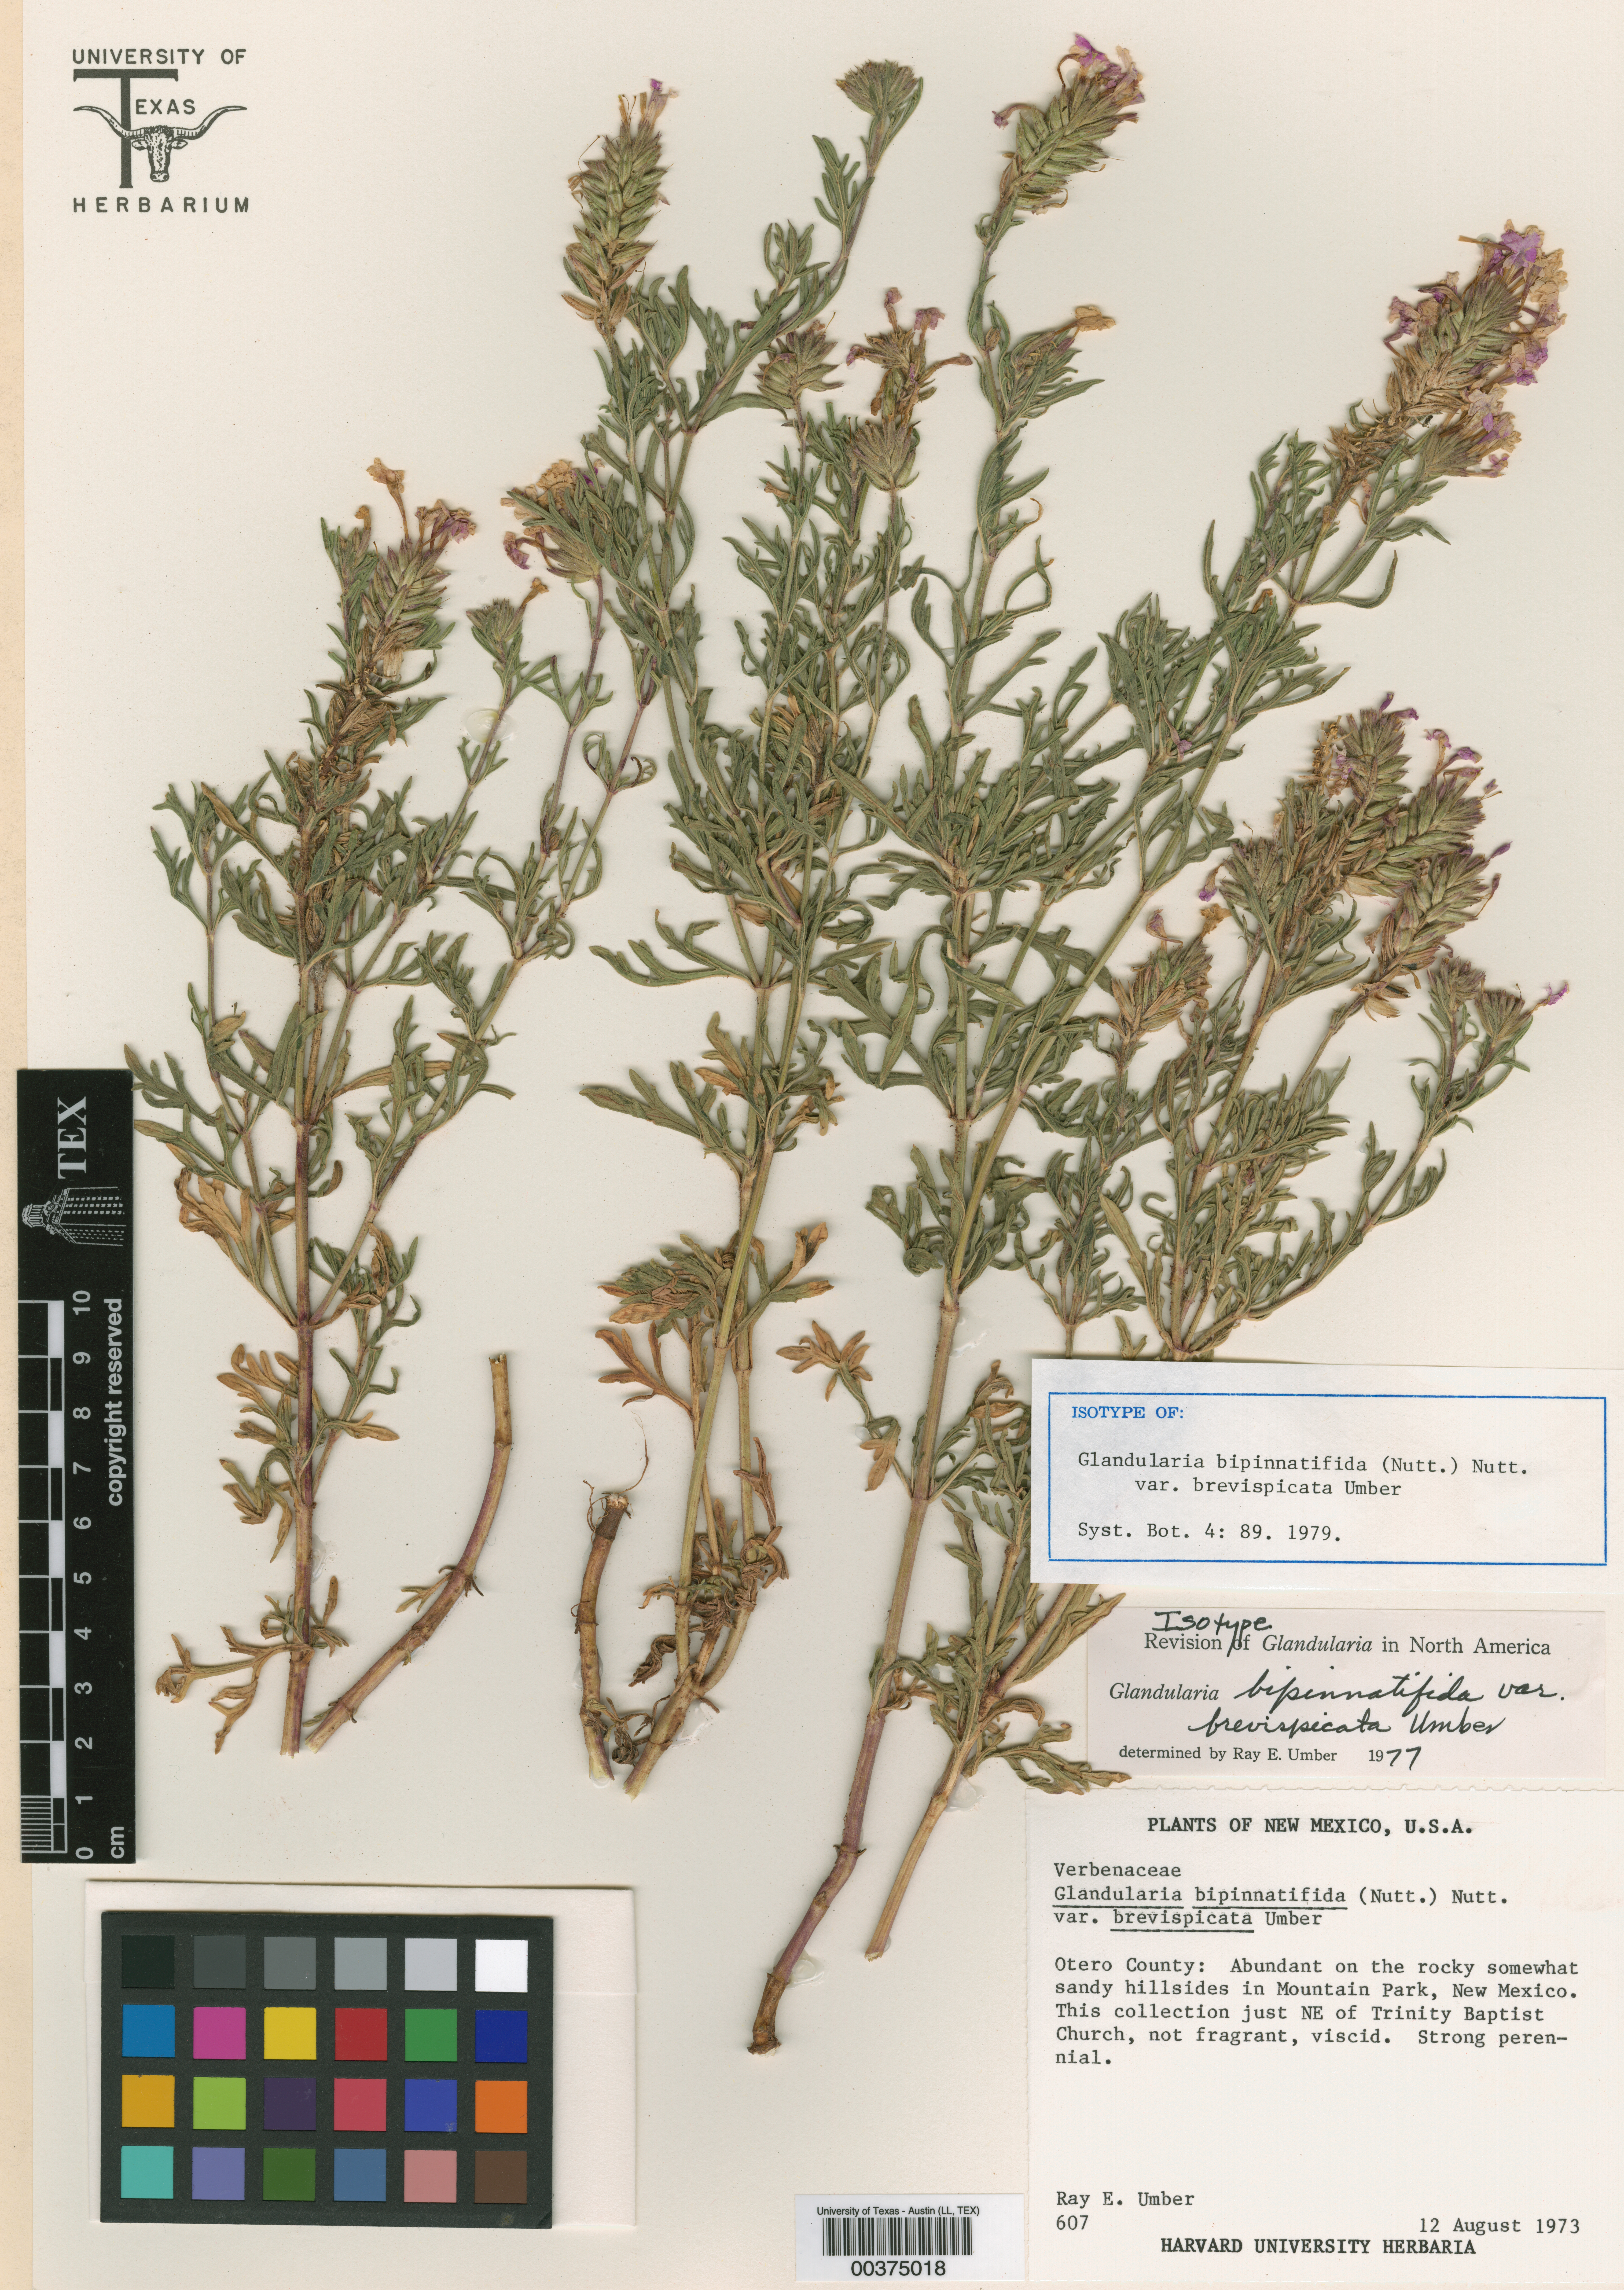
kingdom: Plantae
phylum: Tracheophyta
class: Magnoliopsida
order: Lamiales
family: Verbenaceae
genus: Verbena
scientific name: Verbena bipinnatifida
